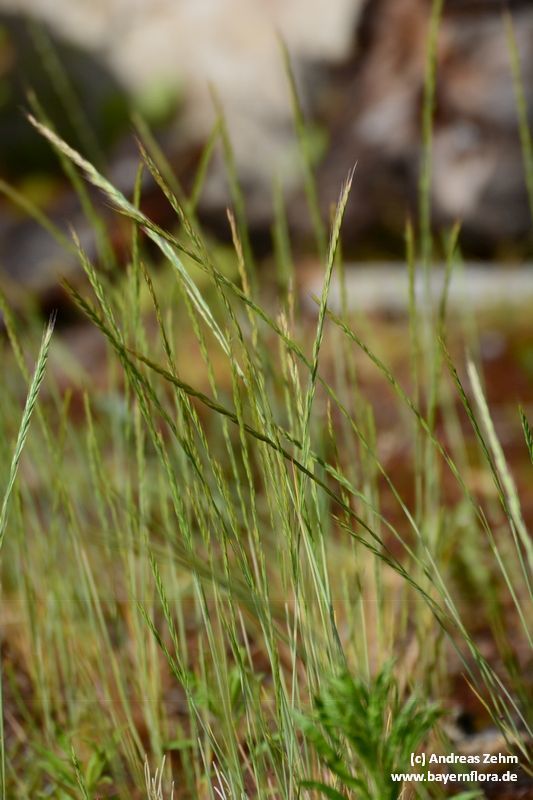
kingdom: Plantae
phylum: Tracheophyta
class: Liliopsida
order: Poales
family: Poaceae
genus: Festuca
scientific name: Festuca myuros
